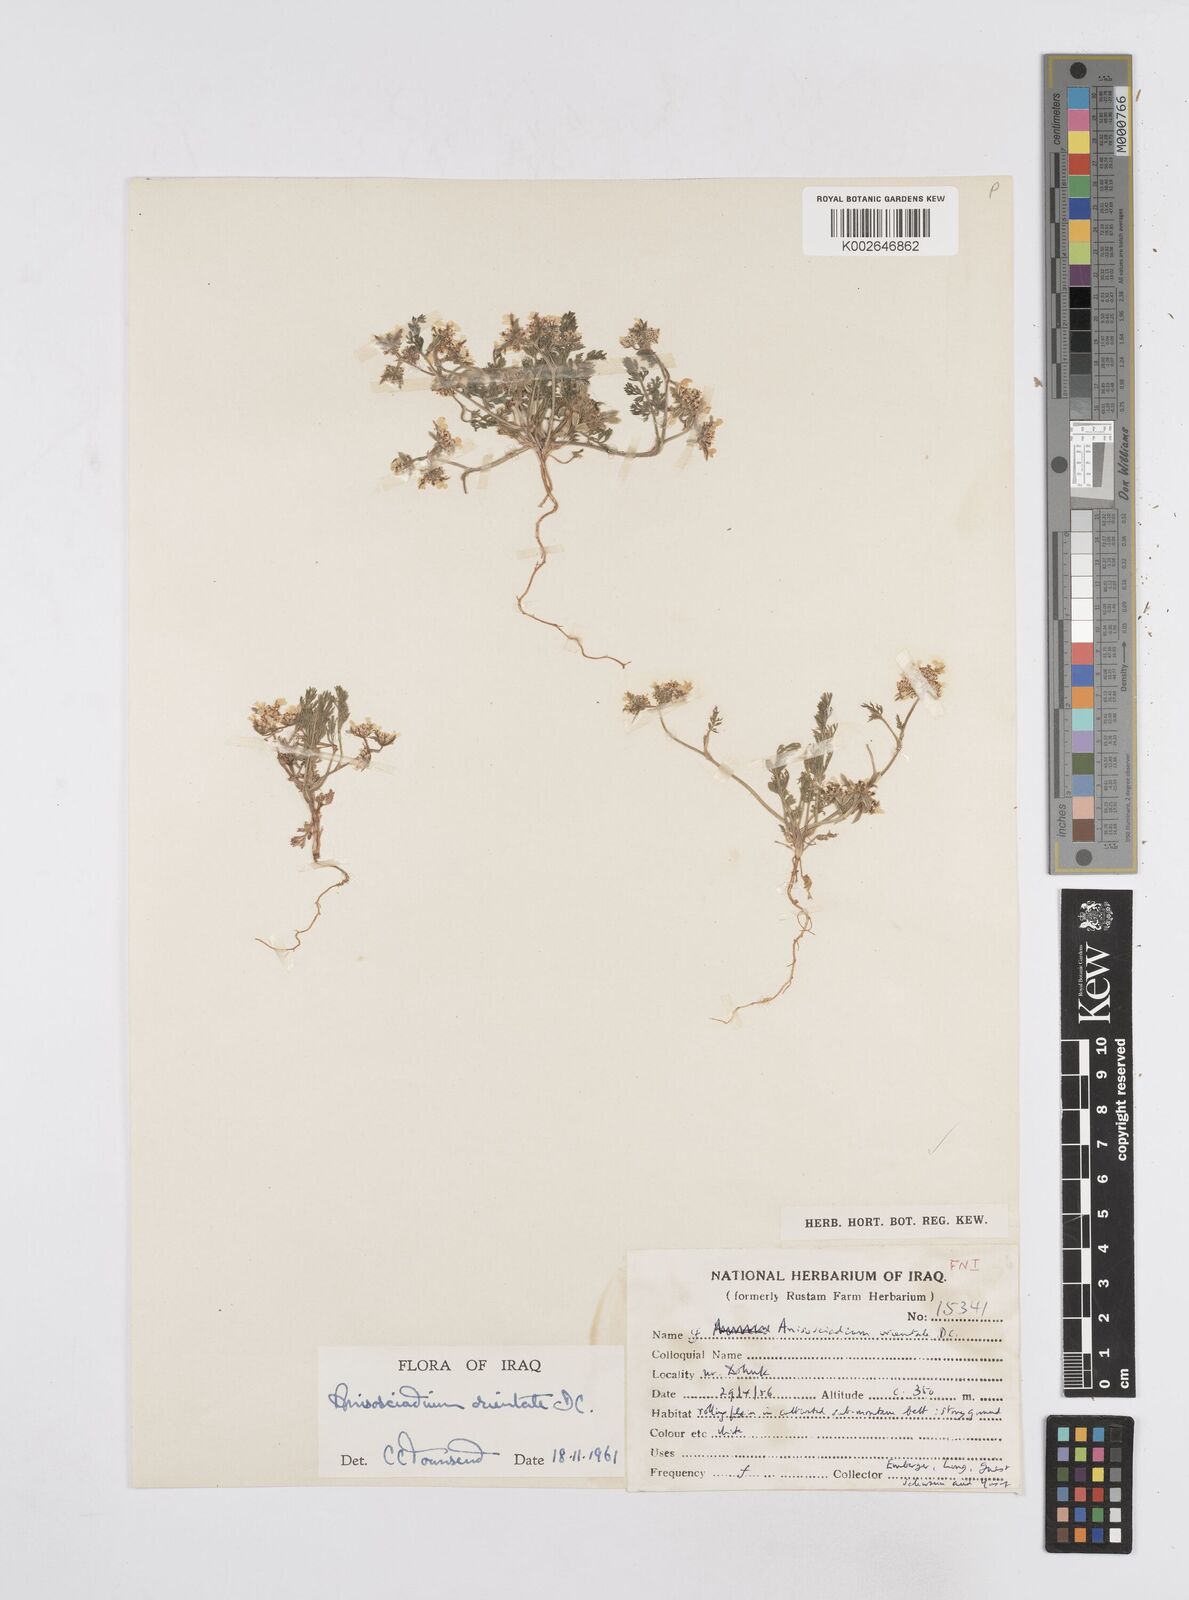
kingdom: Plantae
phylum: Tracheophyta
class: Magnoliopsida
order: Apiales
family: Apiaceae
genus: Anisosciadium
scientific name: Anisosciadium
